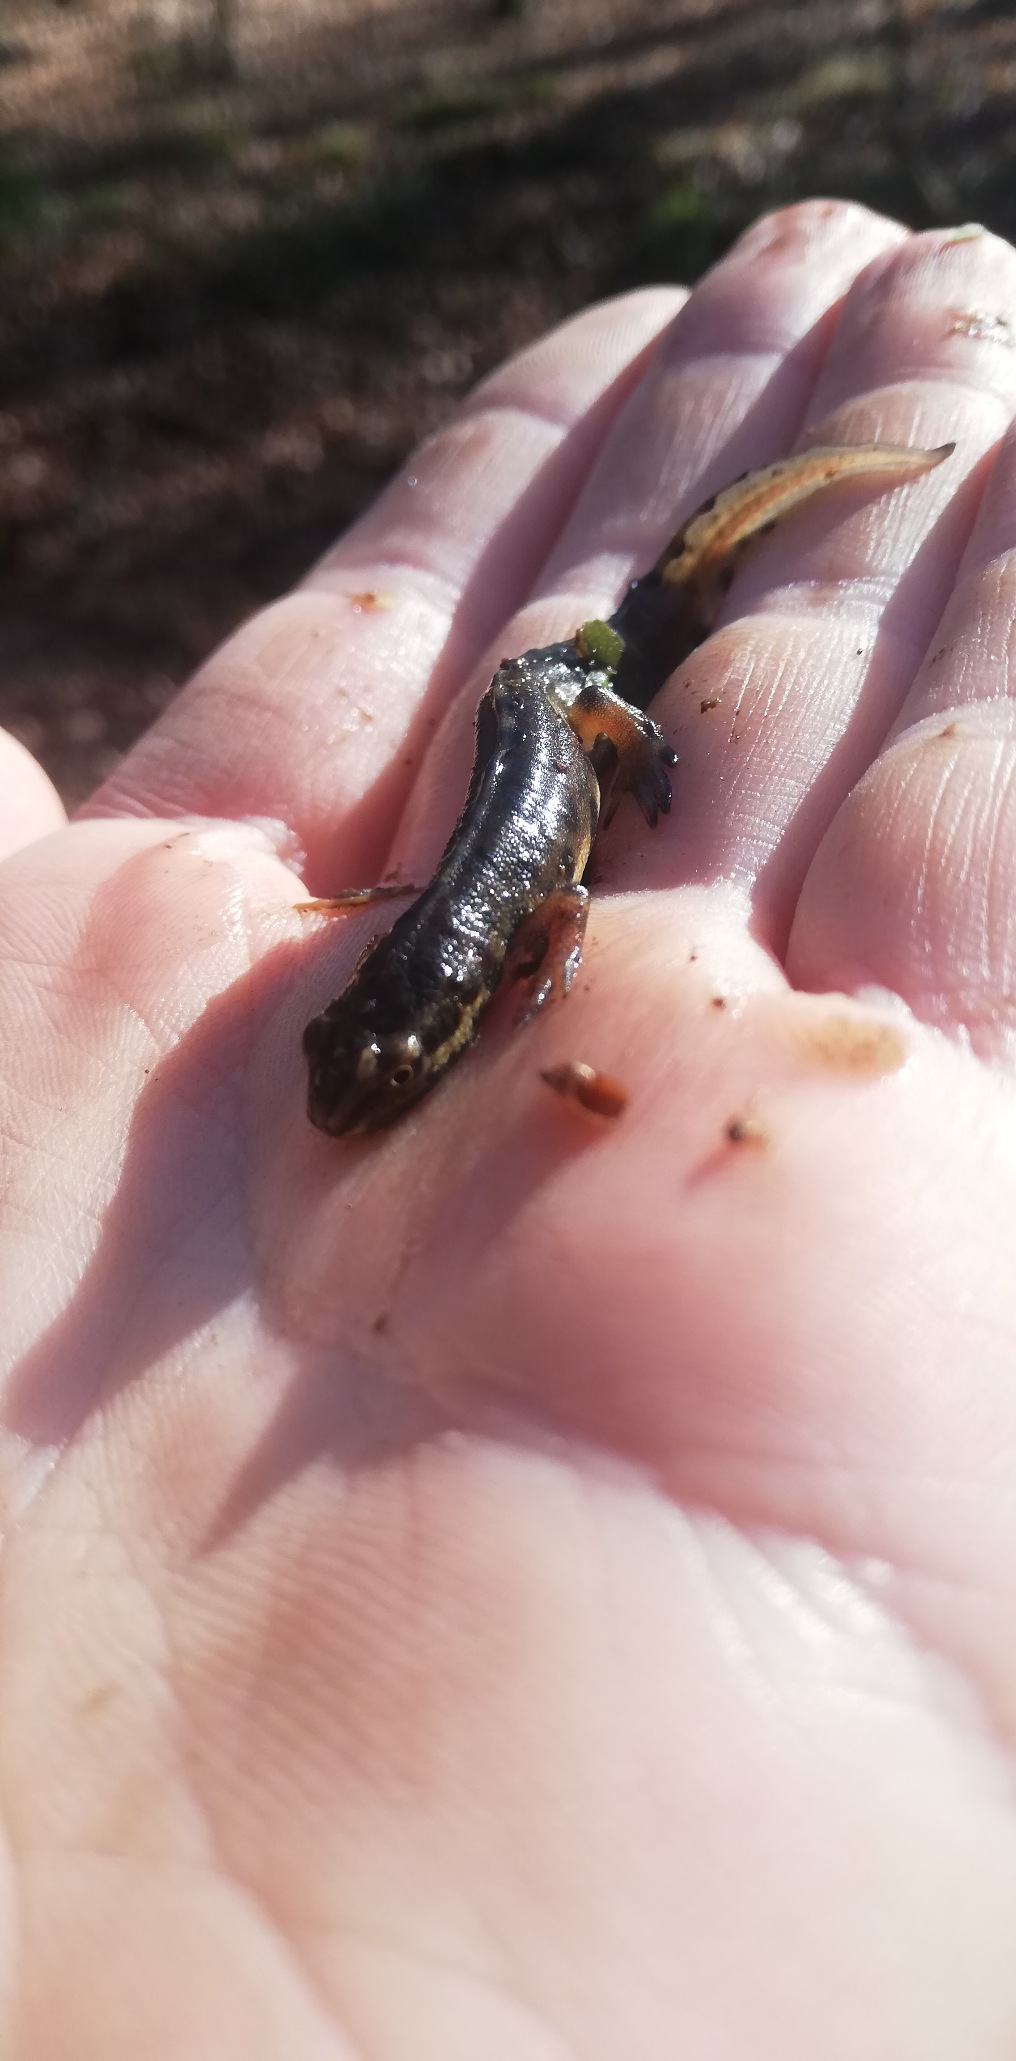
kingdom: Animalia
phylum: Chordata
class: Amphibia
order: Caudata
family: Salamandridae
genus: Lissotriton
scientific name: Lissotriton vulgaris
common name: Lille vandsalamander
